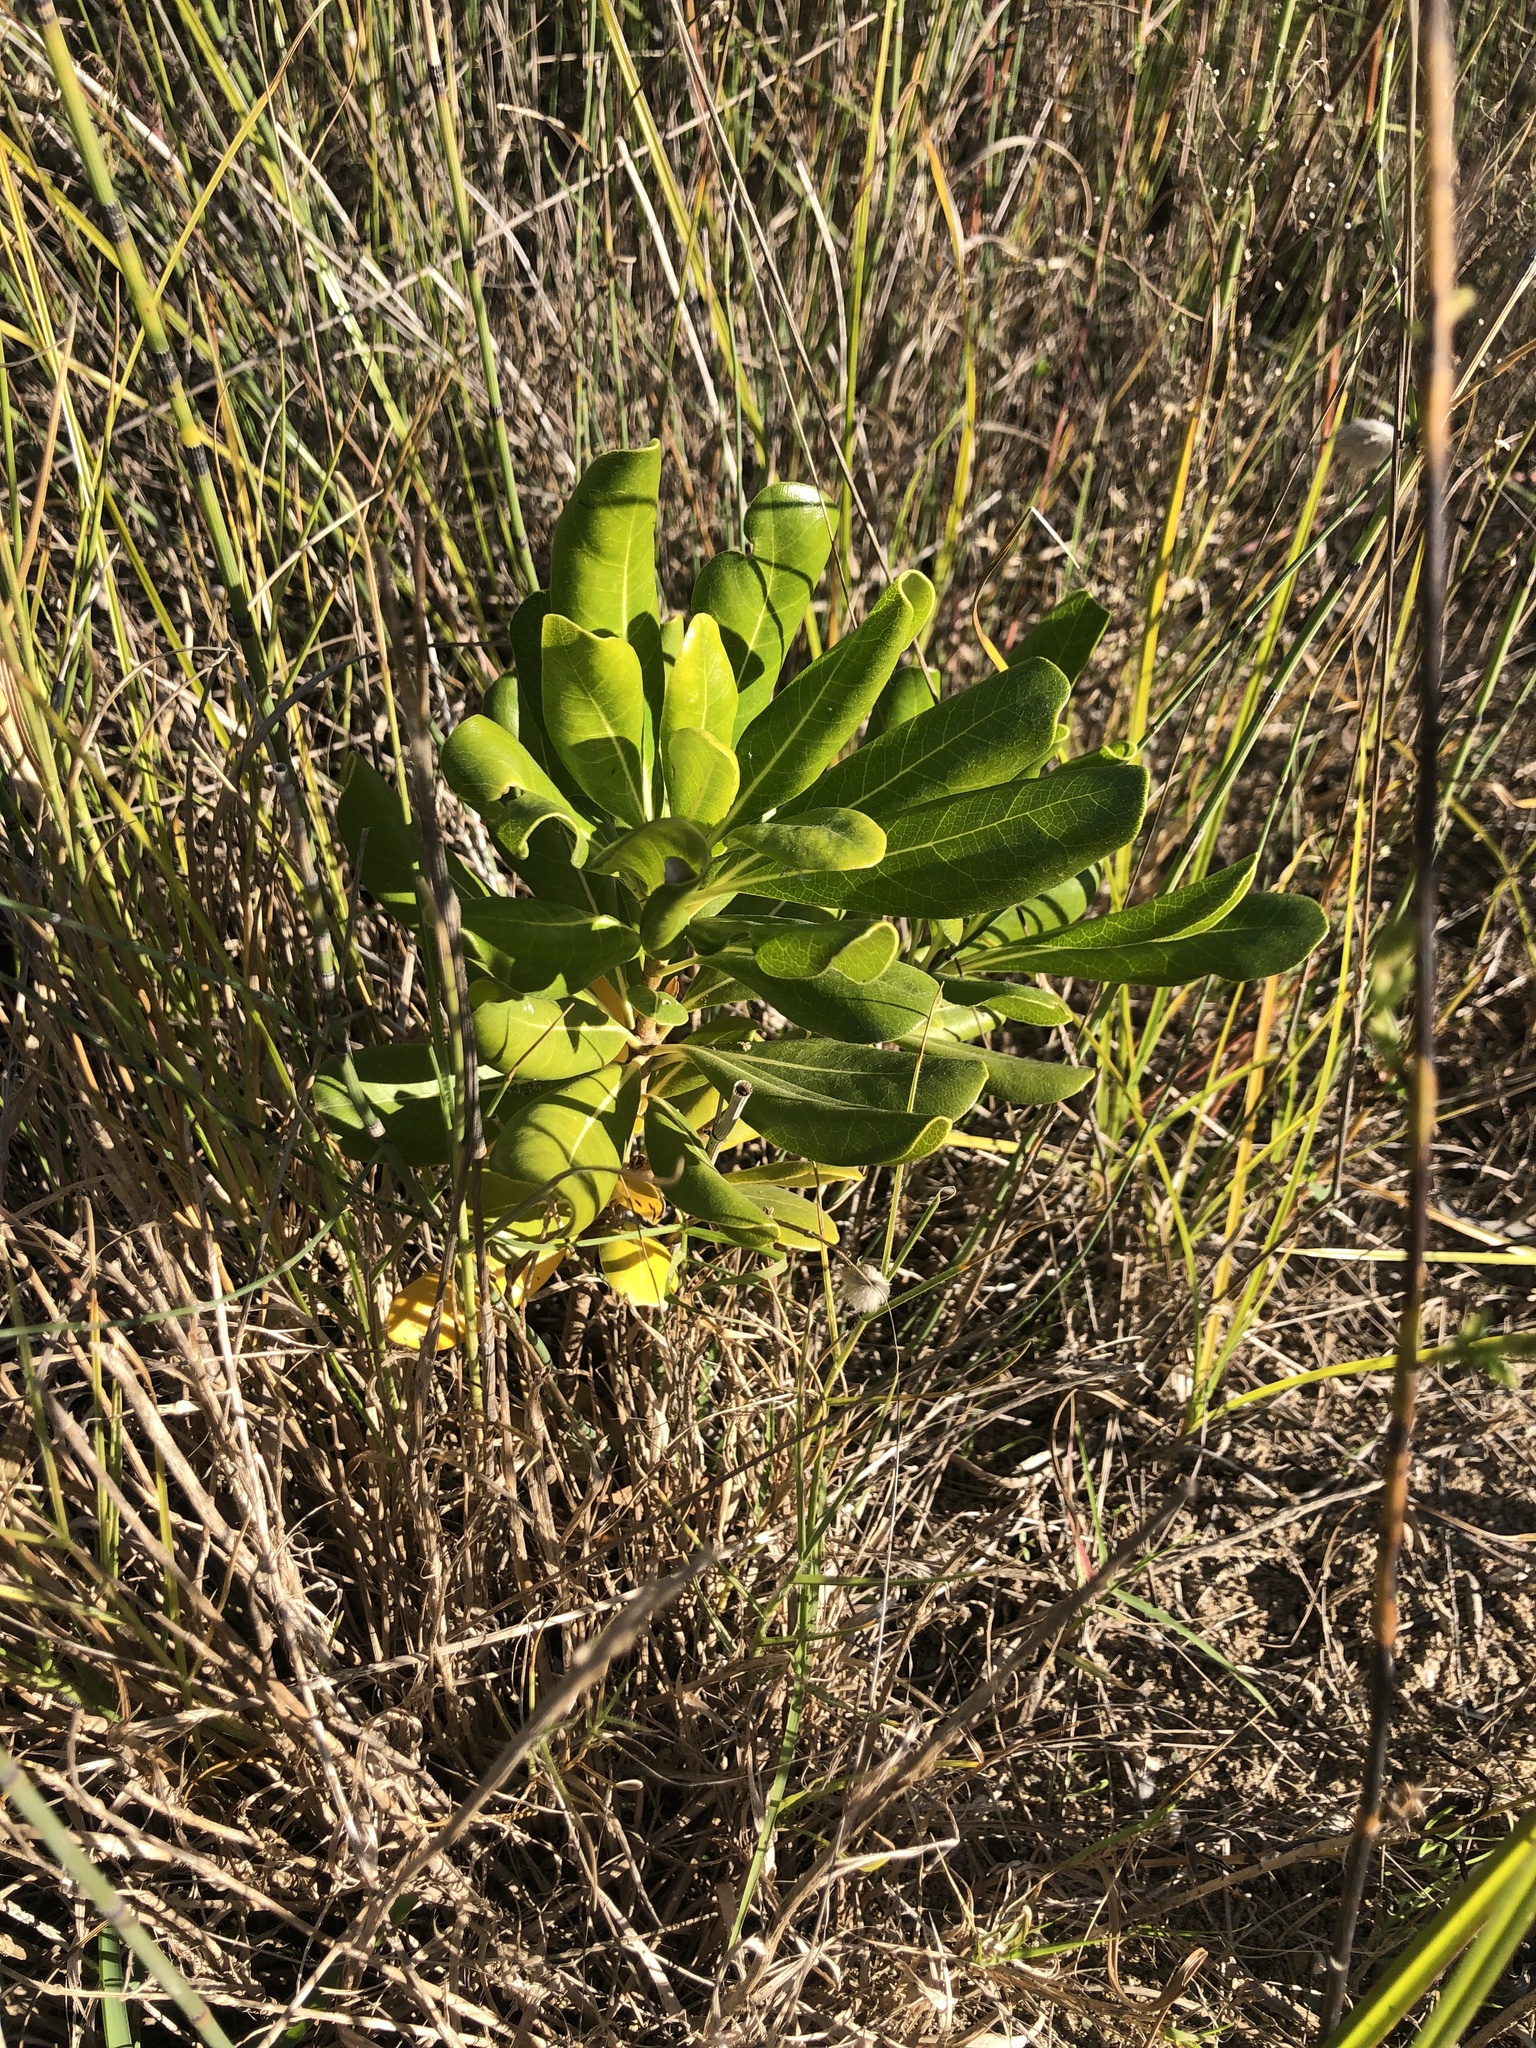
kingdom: Plantae
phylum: Tracheophyta
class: Magnoliopsida
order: Apiales
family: Pittosporaceae
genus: Pittosporum
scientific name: Pittosporum tobira
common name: Japanese cheesewood
